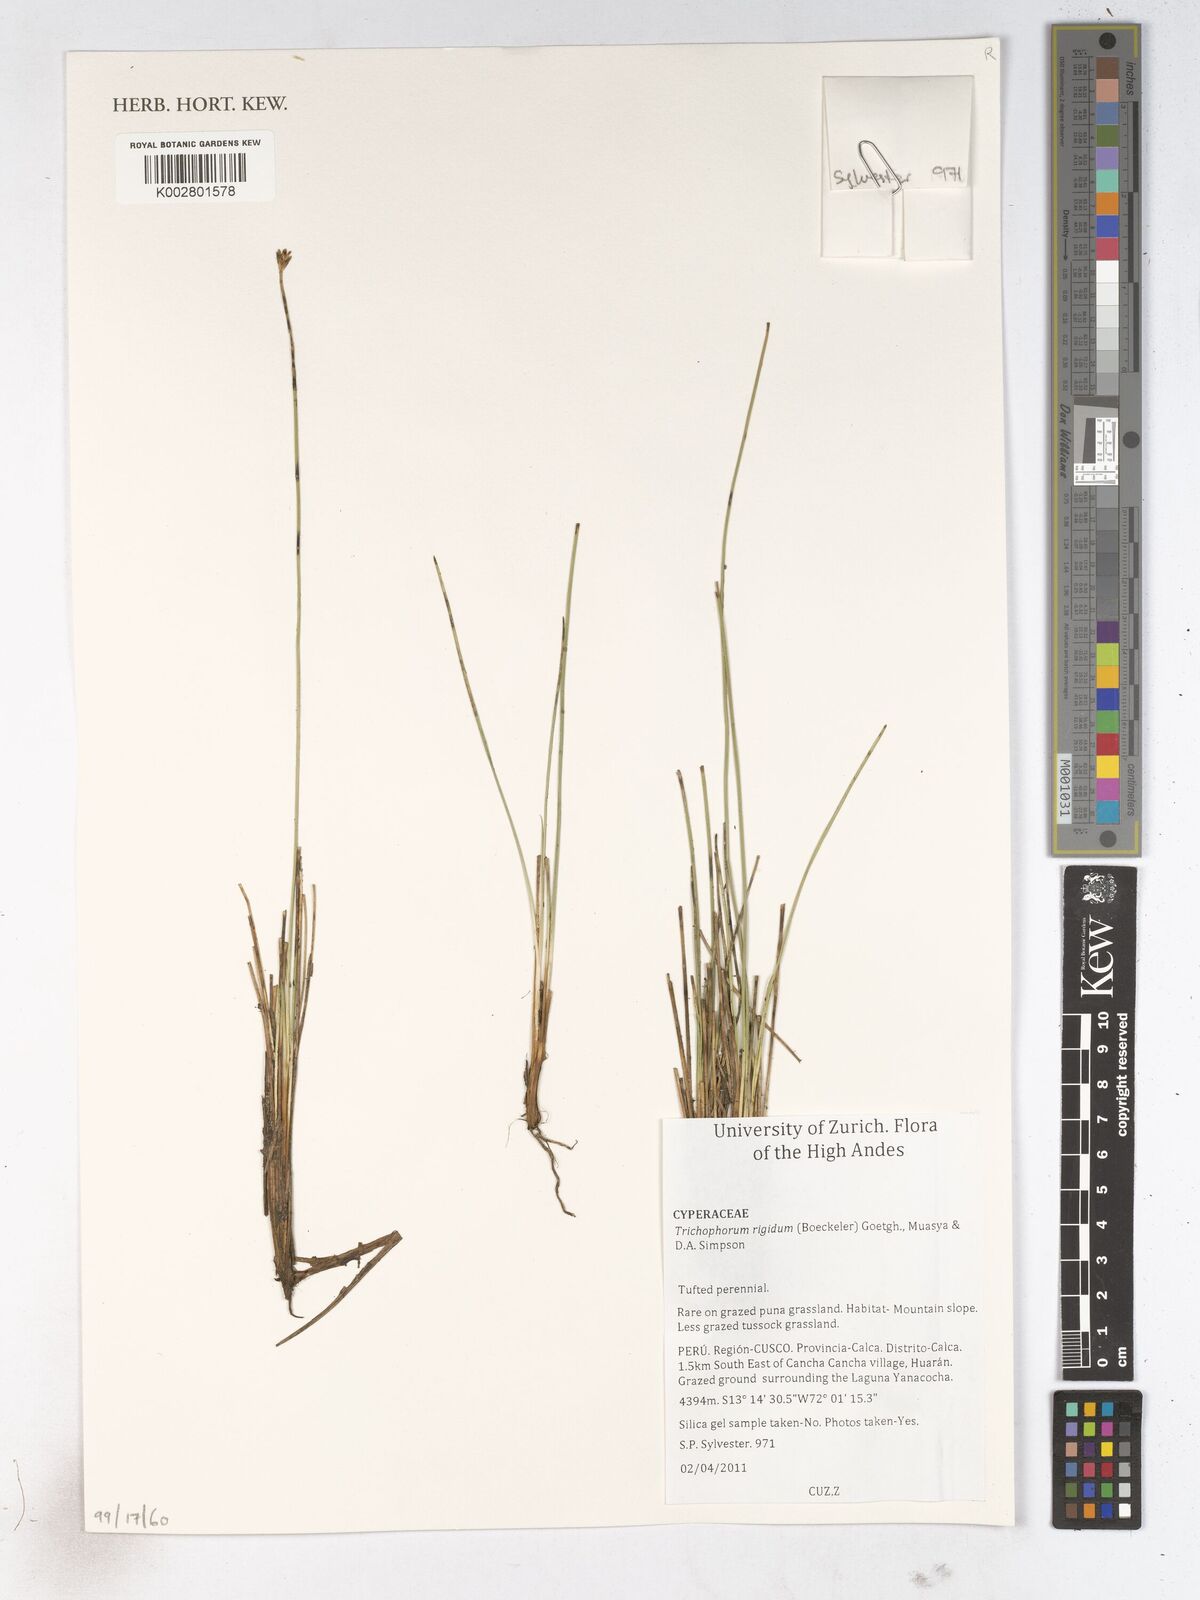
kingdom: Plantae
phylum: Tracheophyta
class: Liliopsida
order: Poales
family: Cyperaceae
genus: Trichophorum
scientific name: Trichophorum rigidum
